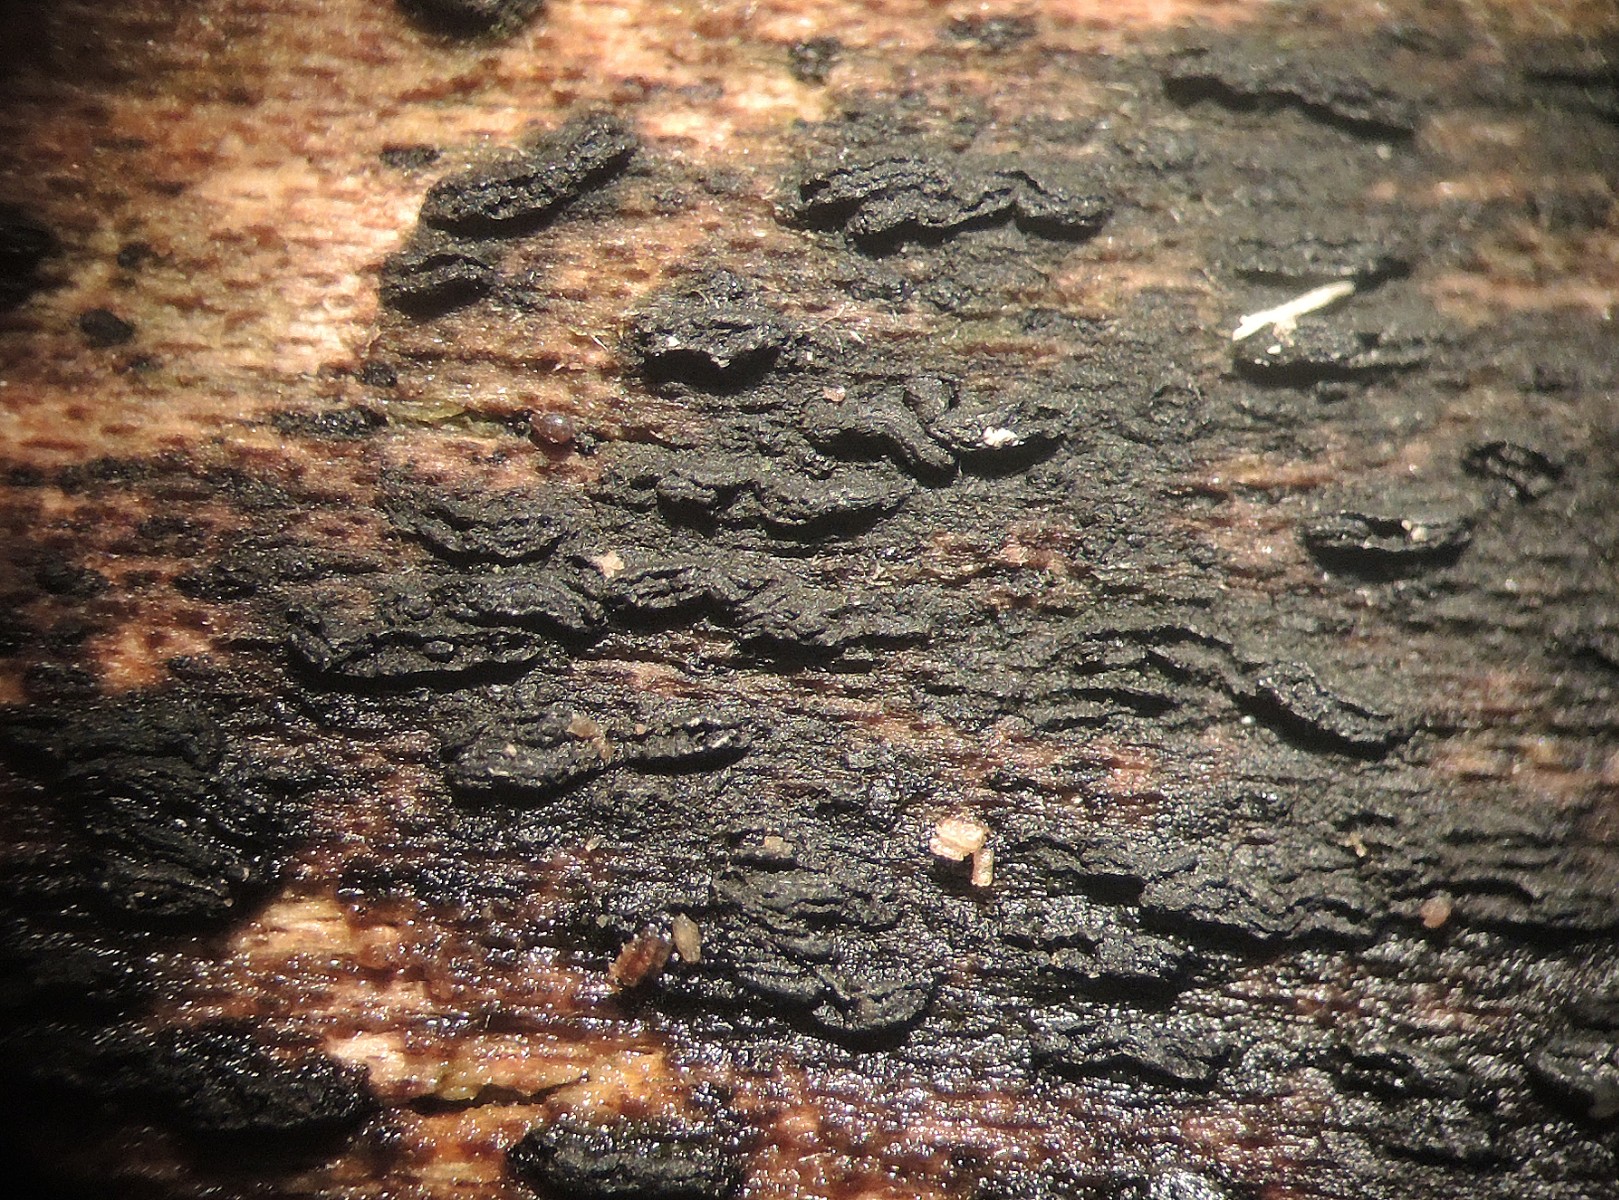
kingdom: Fungi
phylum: Ascomycota
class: Dothideomycetes
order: Hysteriales
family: Hysteriaceae
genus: Gloniopsis
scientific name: Gloniopsis praelonga
